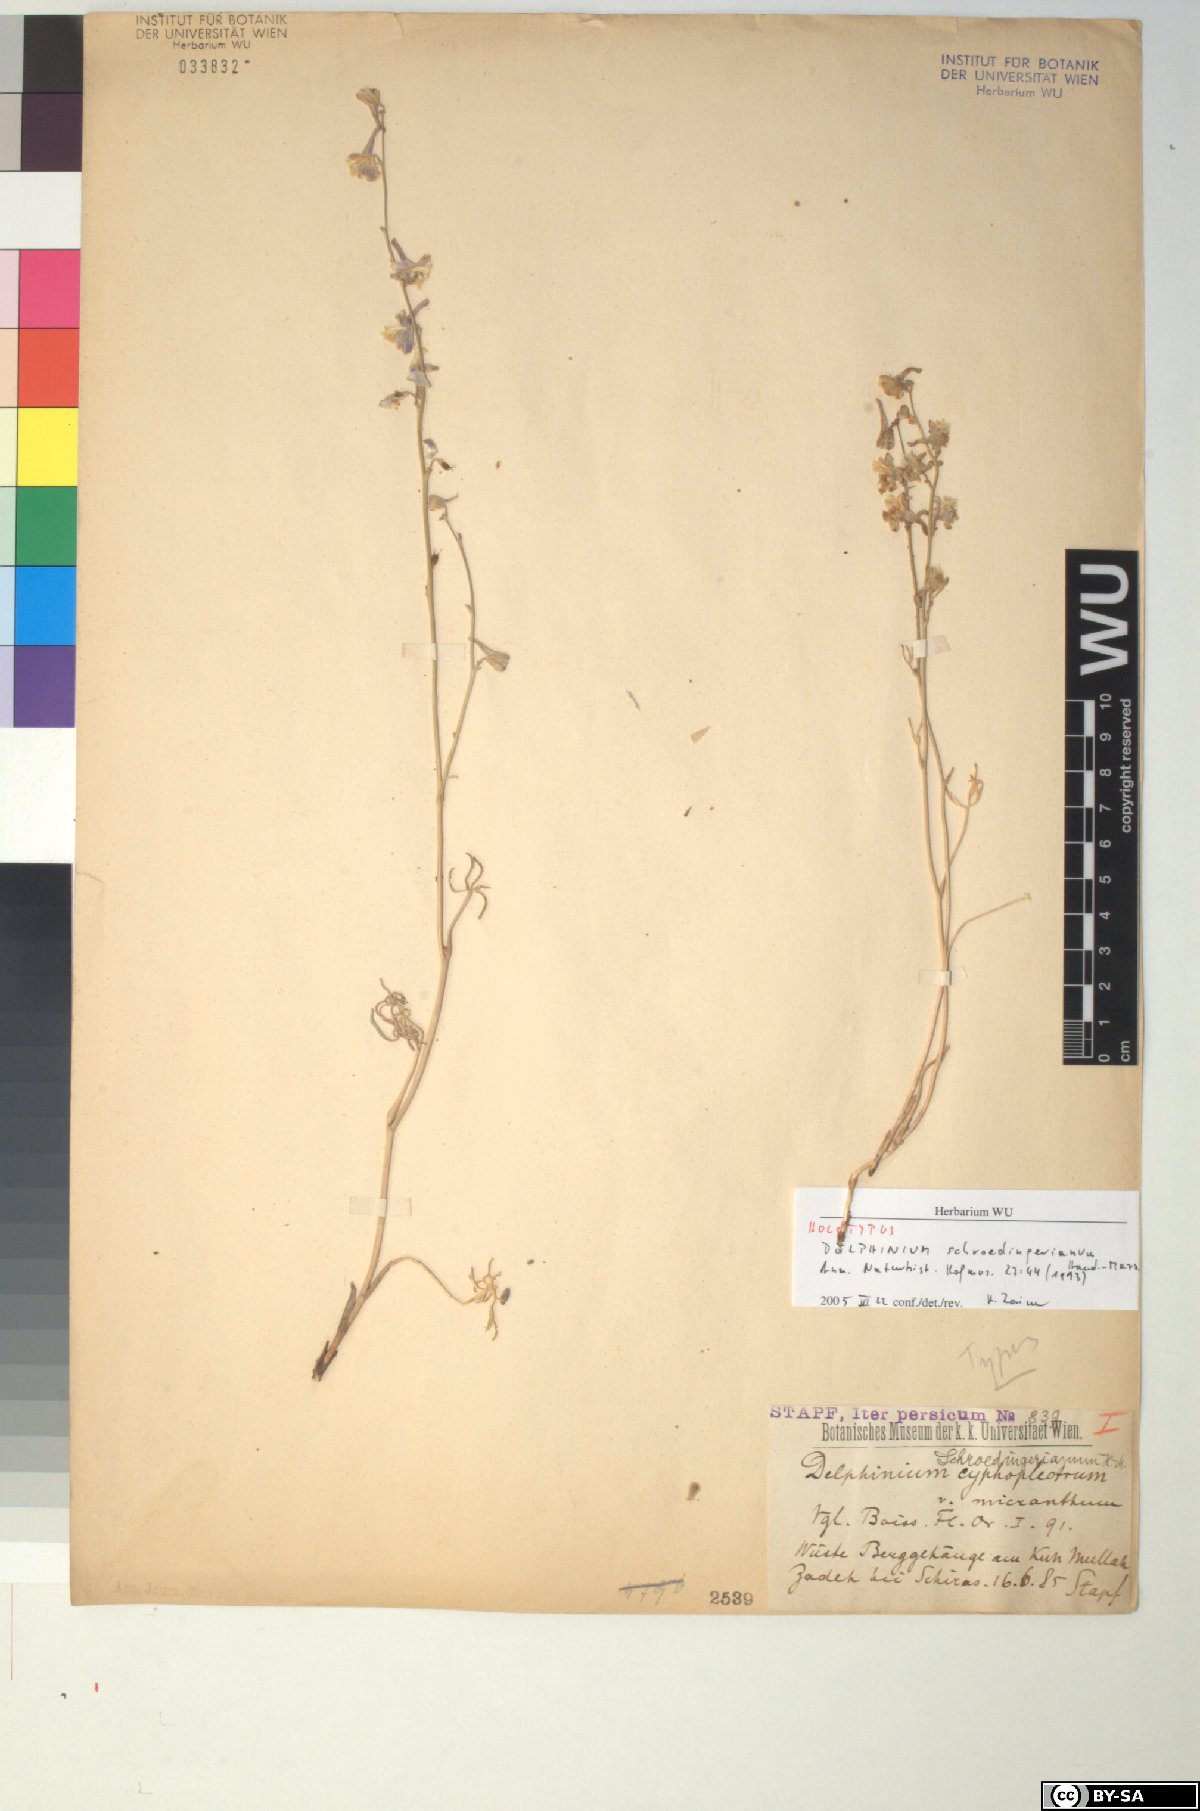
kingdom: Plantae
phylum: Tracheophyta
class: Magnoliopsida
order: Ranunculales
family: Ranunculaceae
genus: Delphinium
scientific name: Delphinium cyphoplectrum
